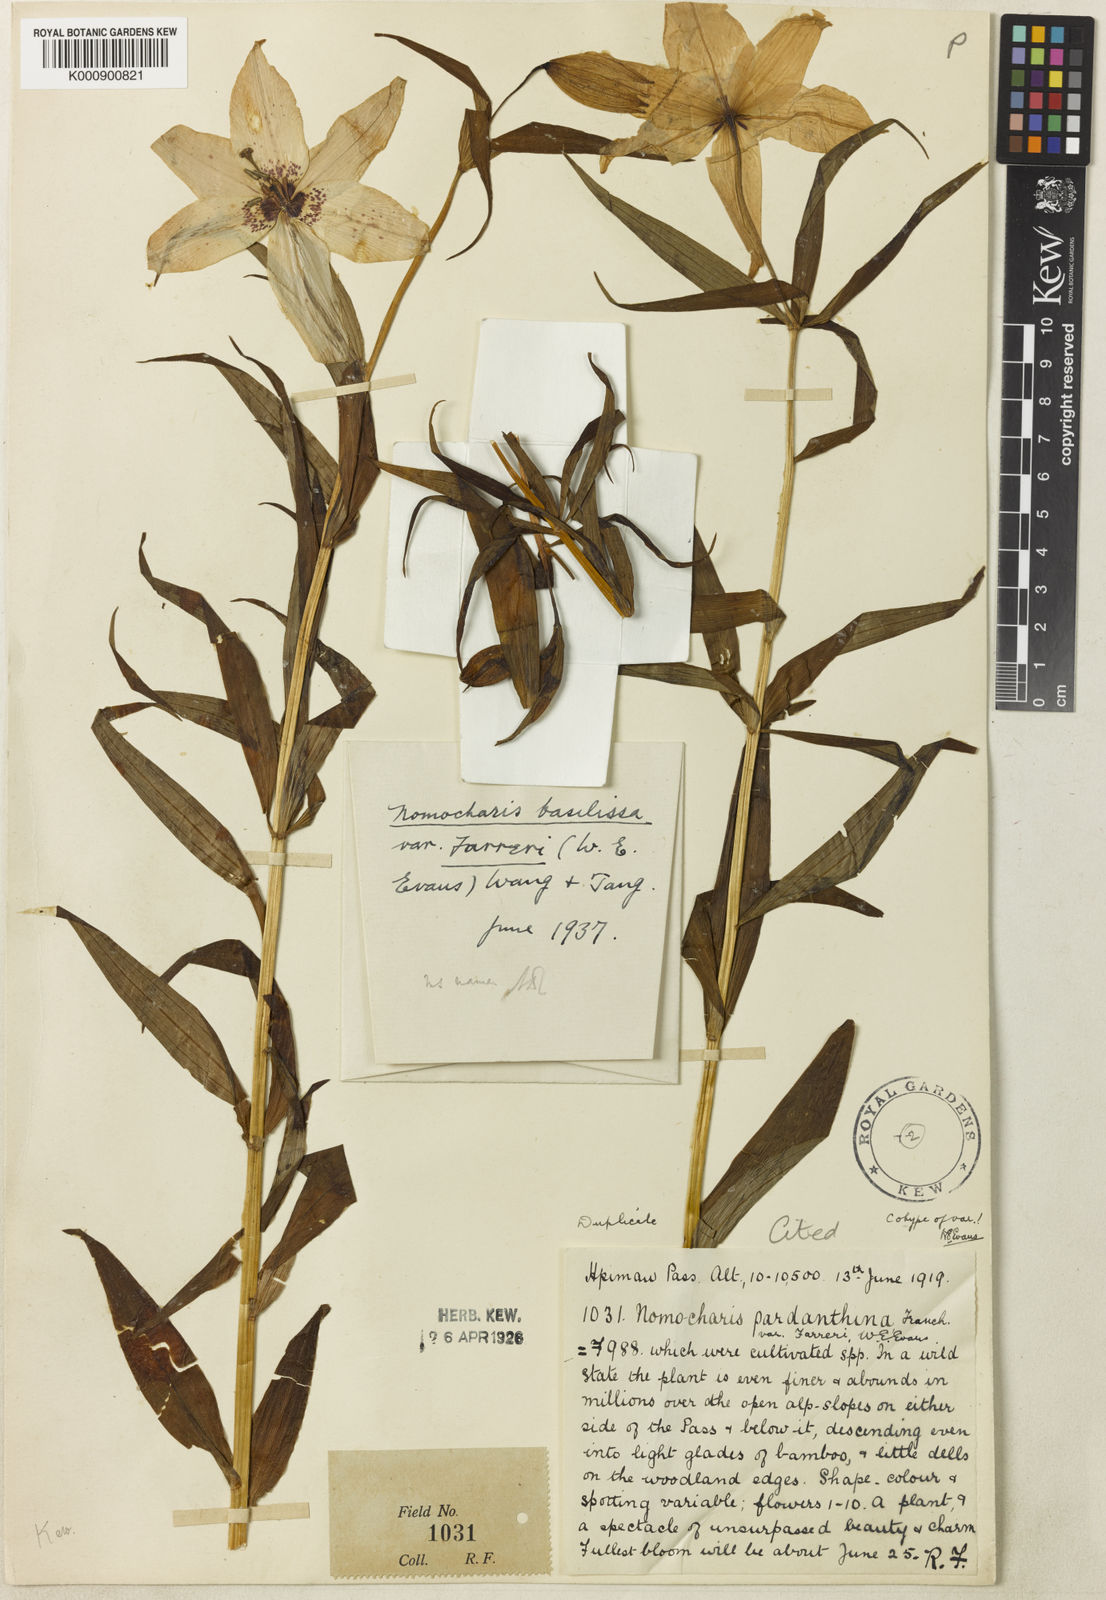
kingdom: Plantae
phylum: Tracheophyta
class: Liliopsida
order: Liliales
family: Liliaceae
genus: Lilium
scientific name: Lilium sealyi
